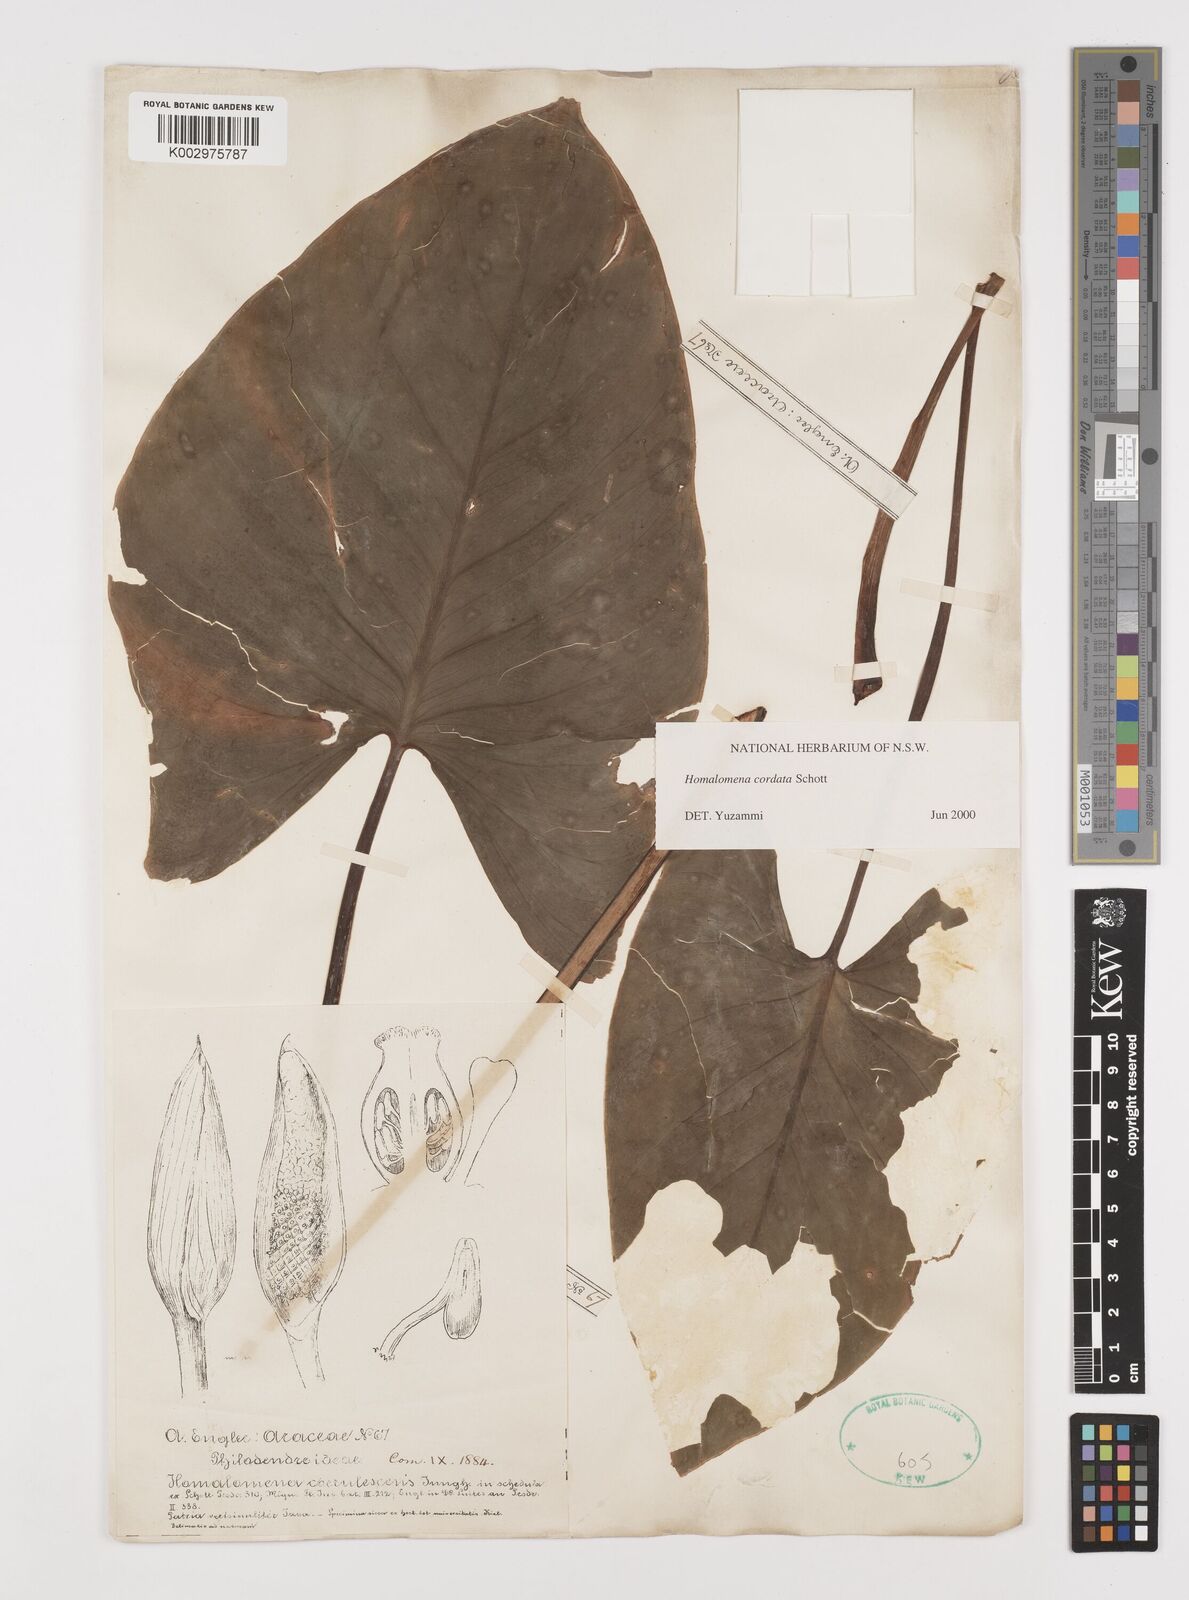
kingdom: Plantae
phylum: Tracheophyta
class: Liliopsida
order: Alismatales
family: Araceae
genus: Homalomena
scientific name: Homalomena cordata
